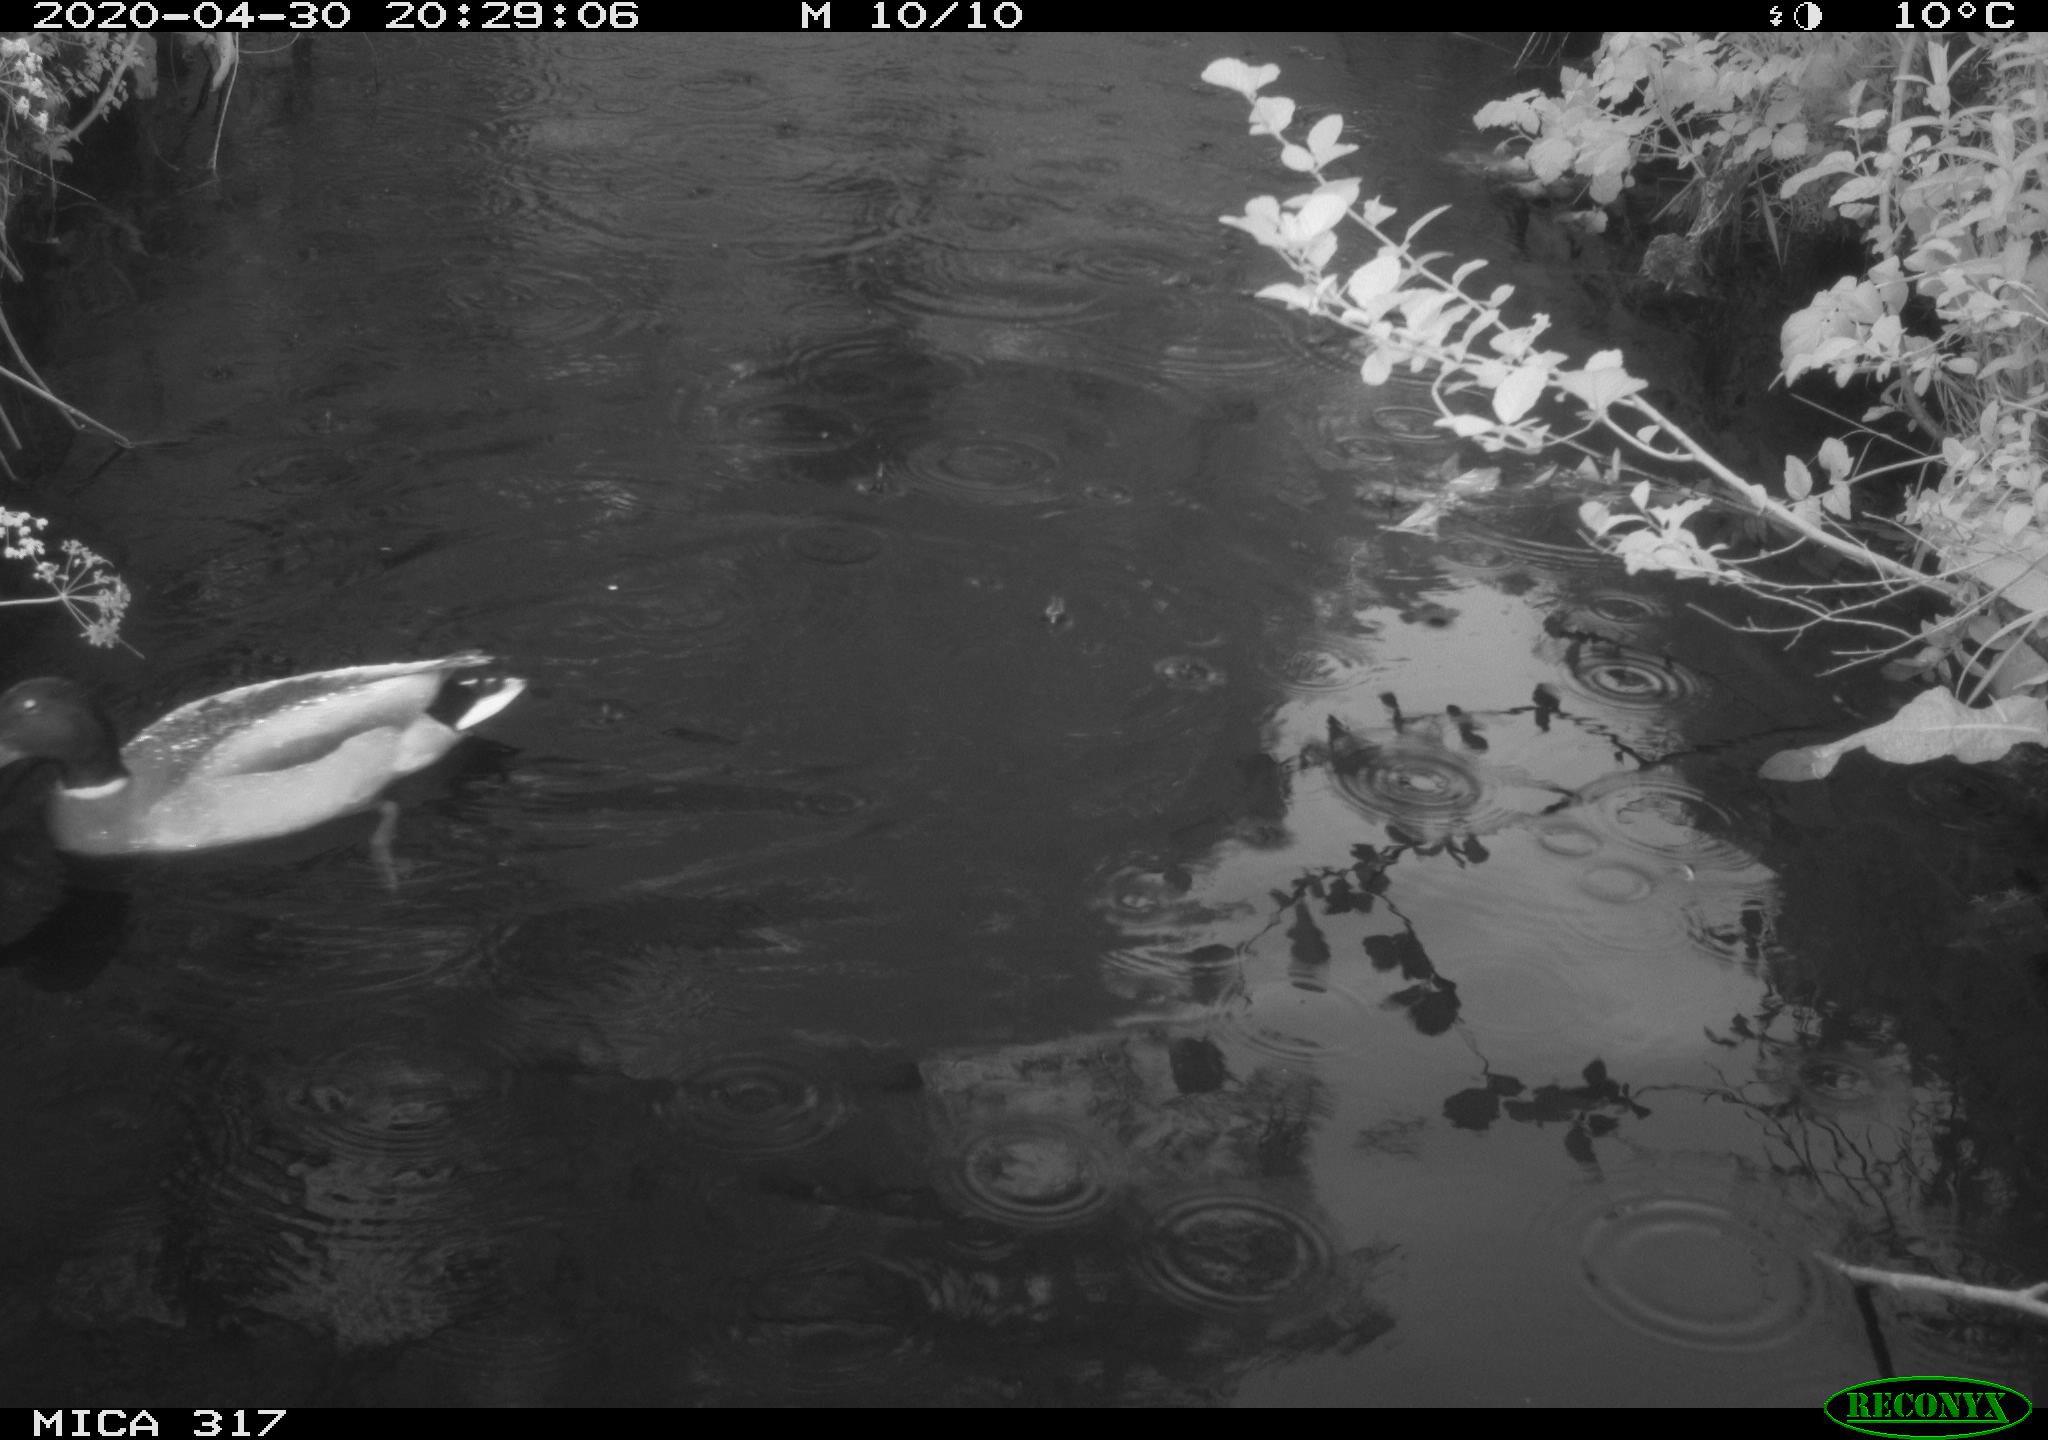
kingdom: Animalia
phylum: Chordata
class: Aves
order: Anseriformes
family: Anatidae
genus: Anas
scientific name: Anas platyrhynchos
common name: Mallard
